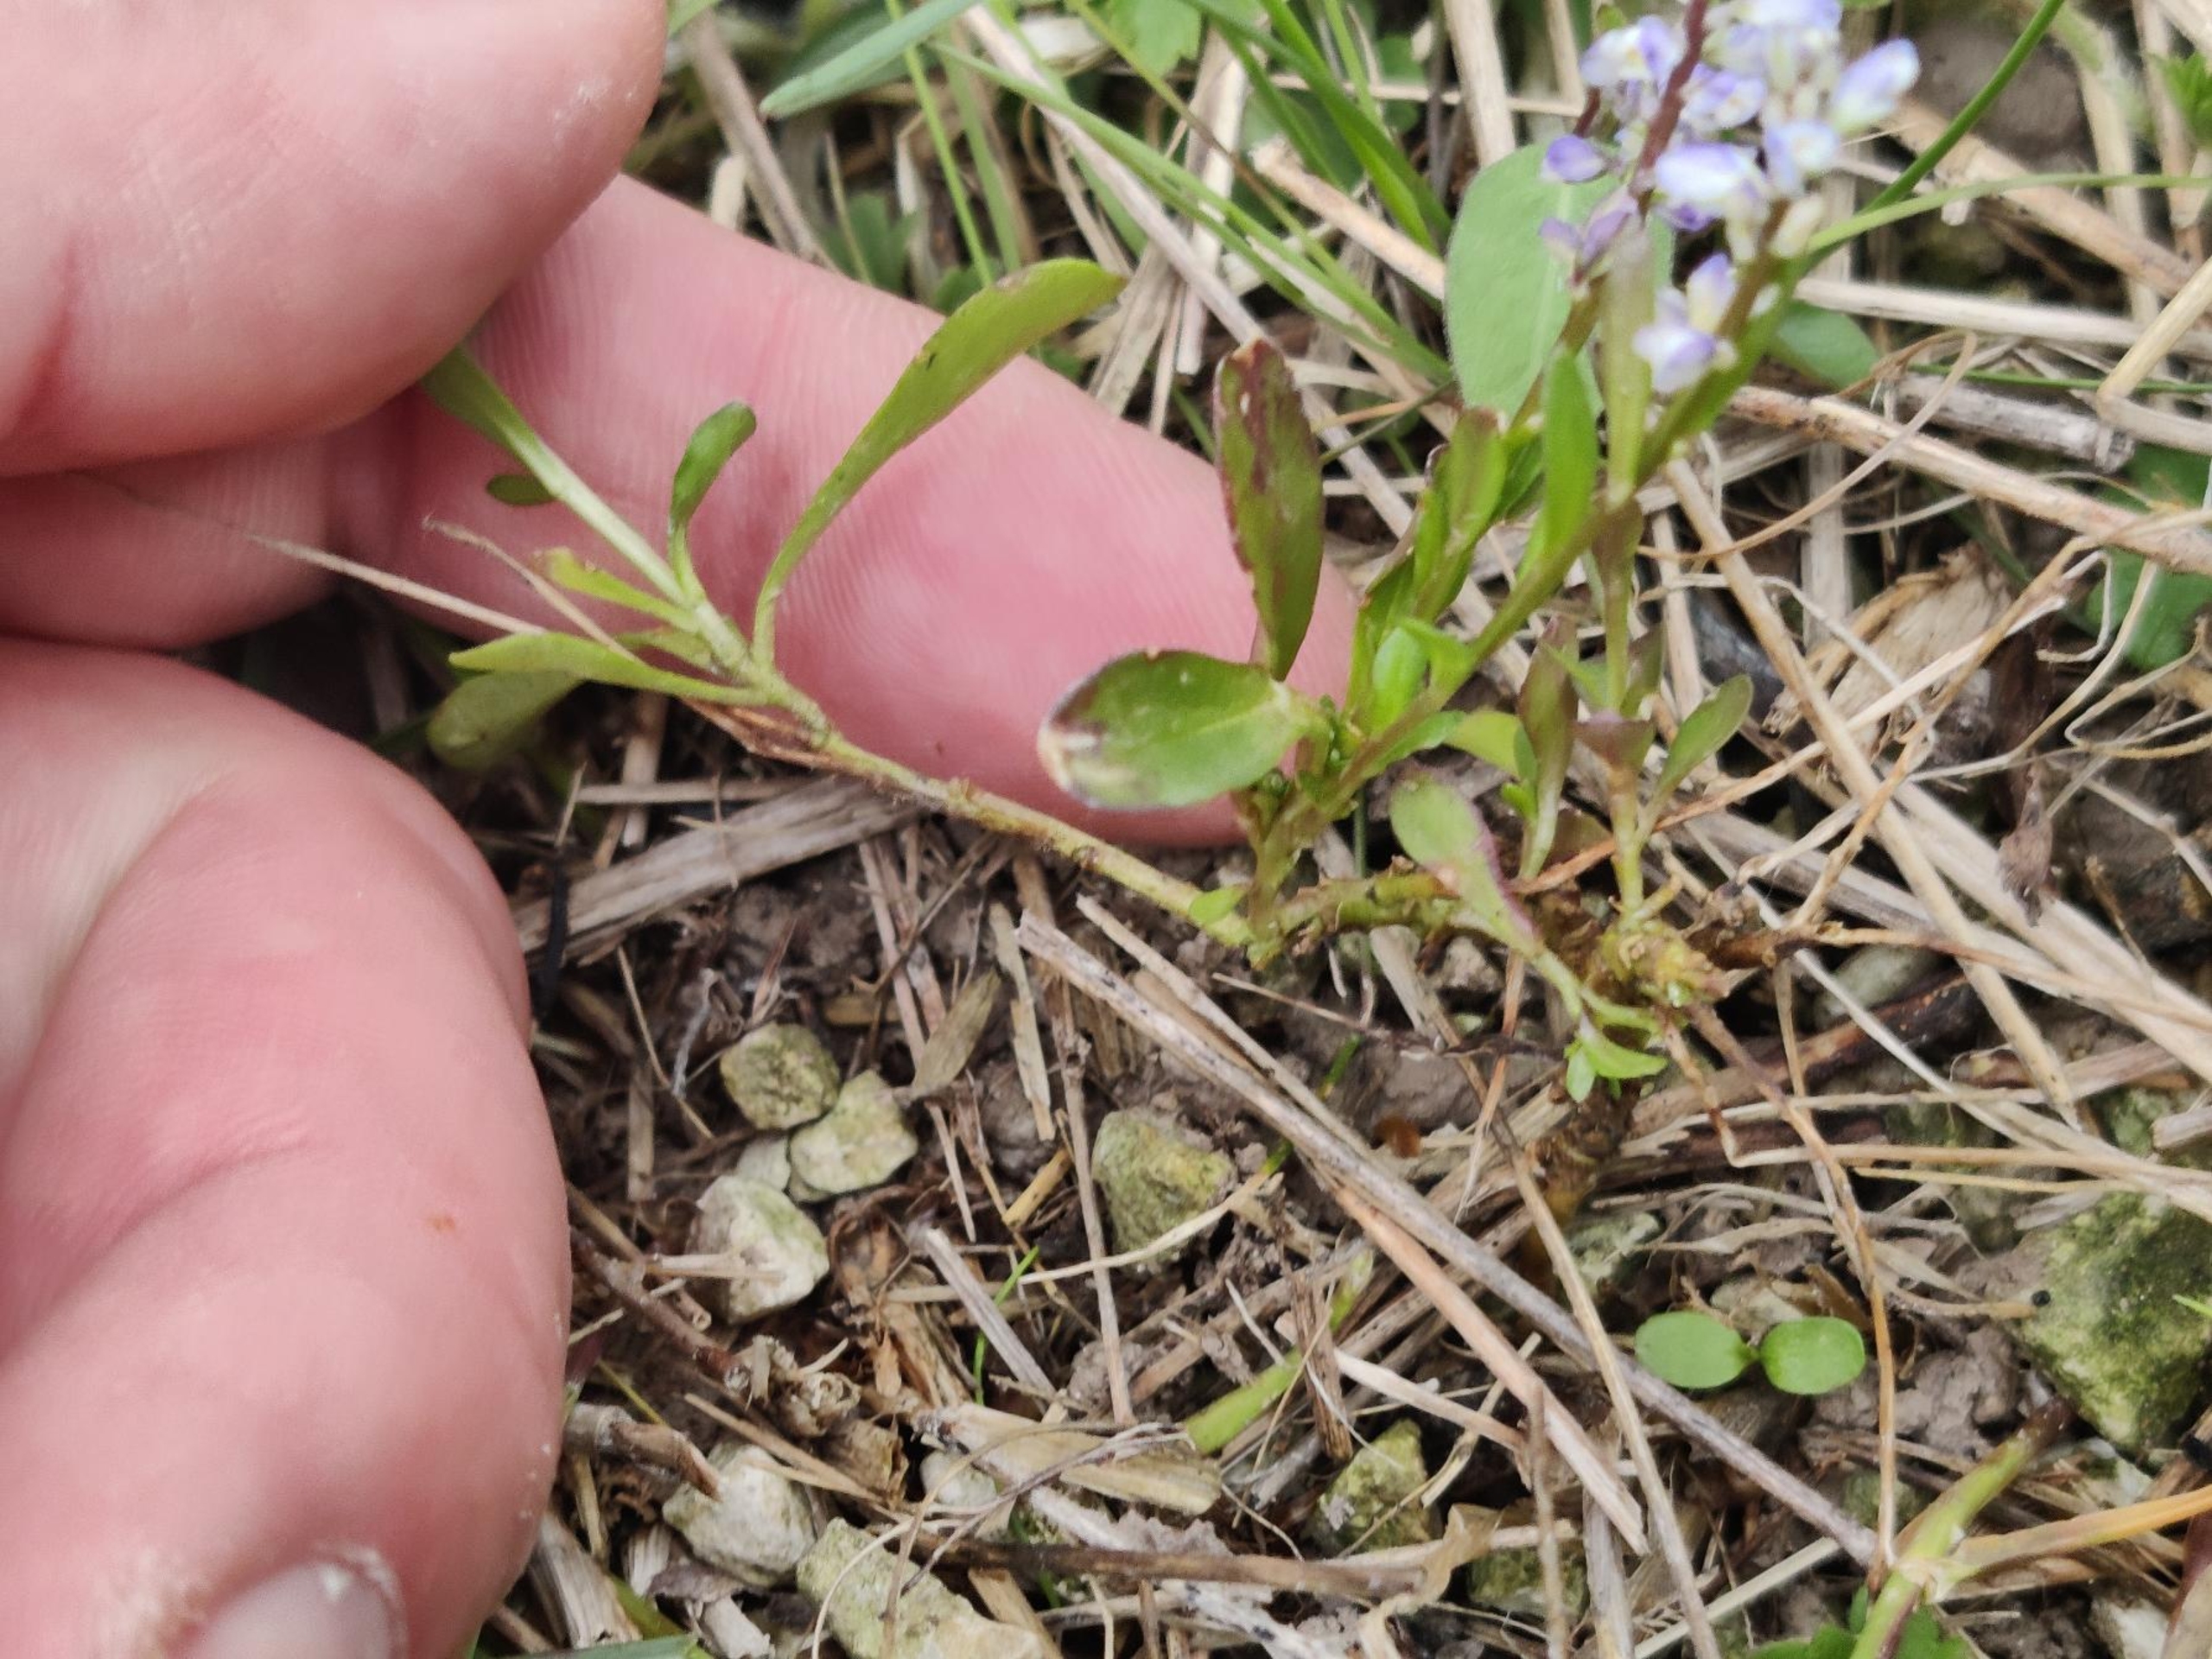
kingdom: Plantae
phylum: Tracheophyta
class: Magnoliopsida
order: Fabales
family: Polygalaceae
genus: Polygala
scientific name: Polygala amarella
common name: Bitter mælkeurt
